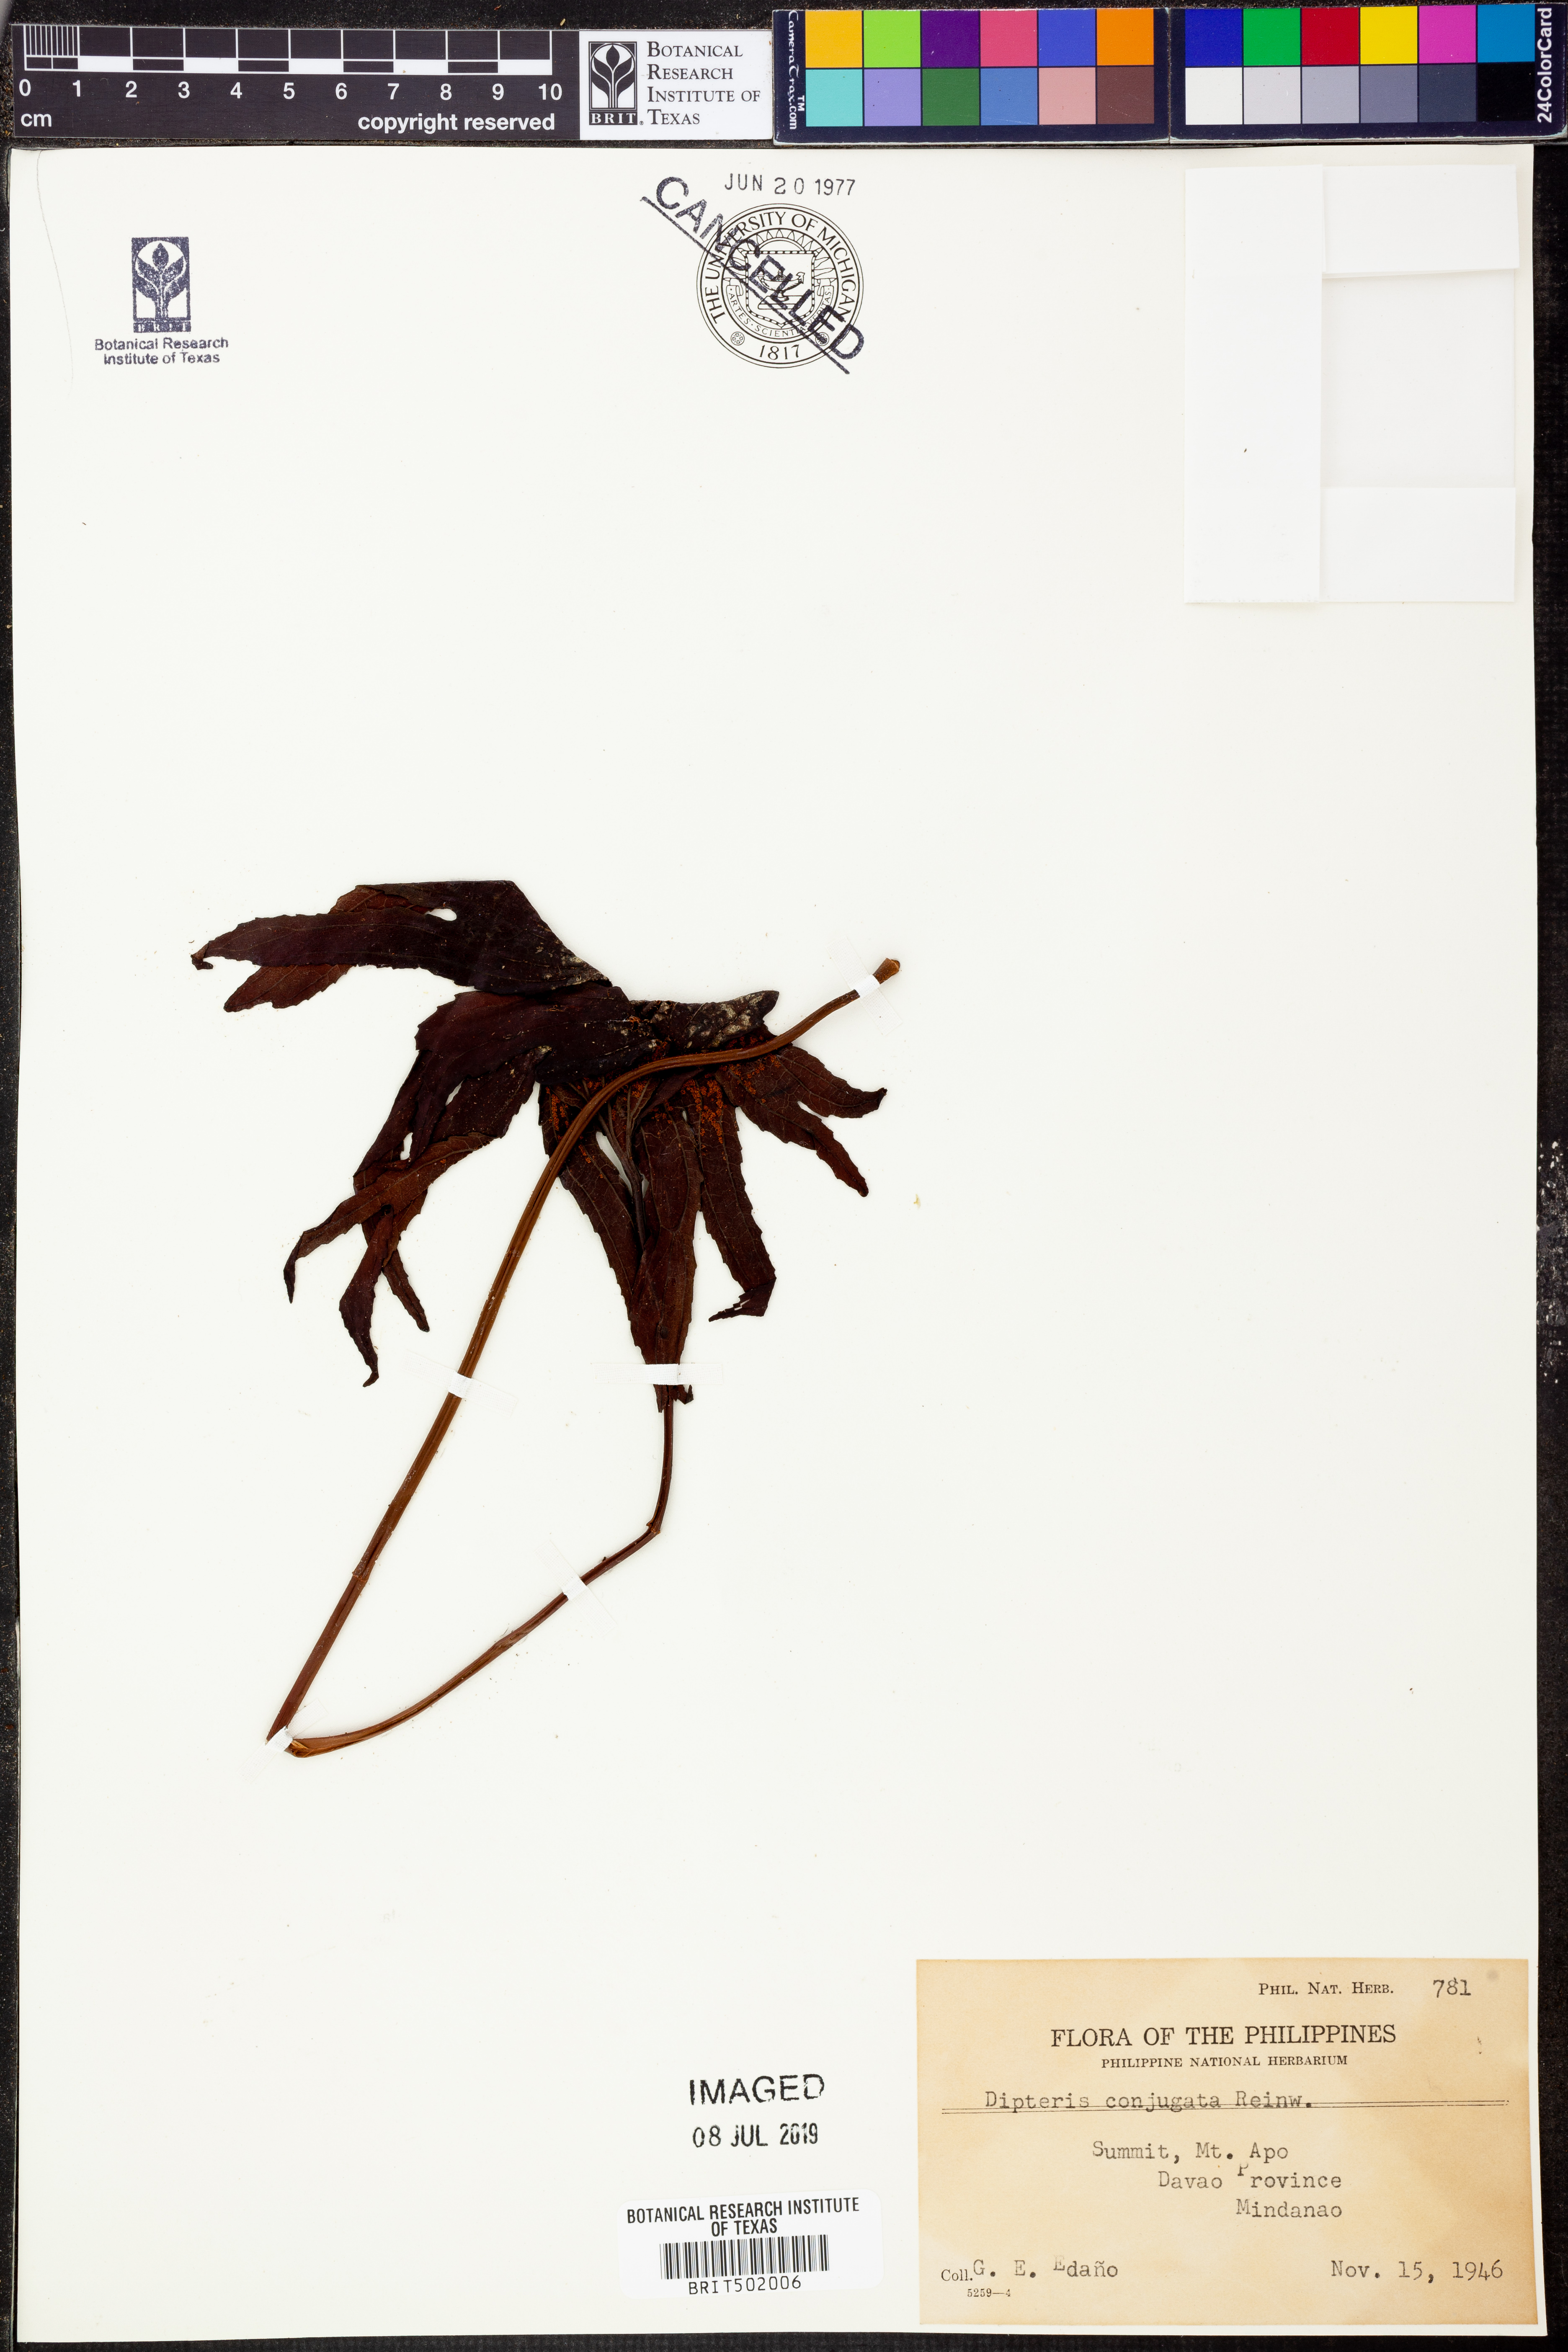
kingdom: Plantae
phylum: Tracheophyta
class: Polypodiopsida
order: Gleicheniales
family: Dipteridaceae
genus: Dipteris
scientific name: Dipteris conjugata
